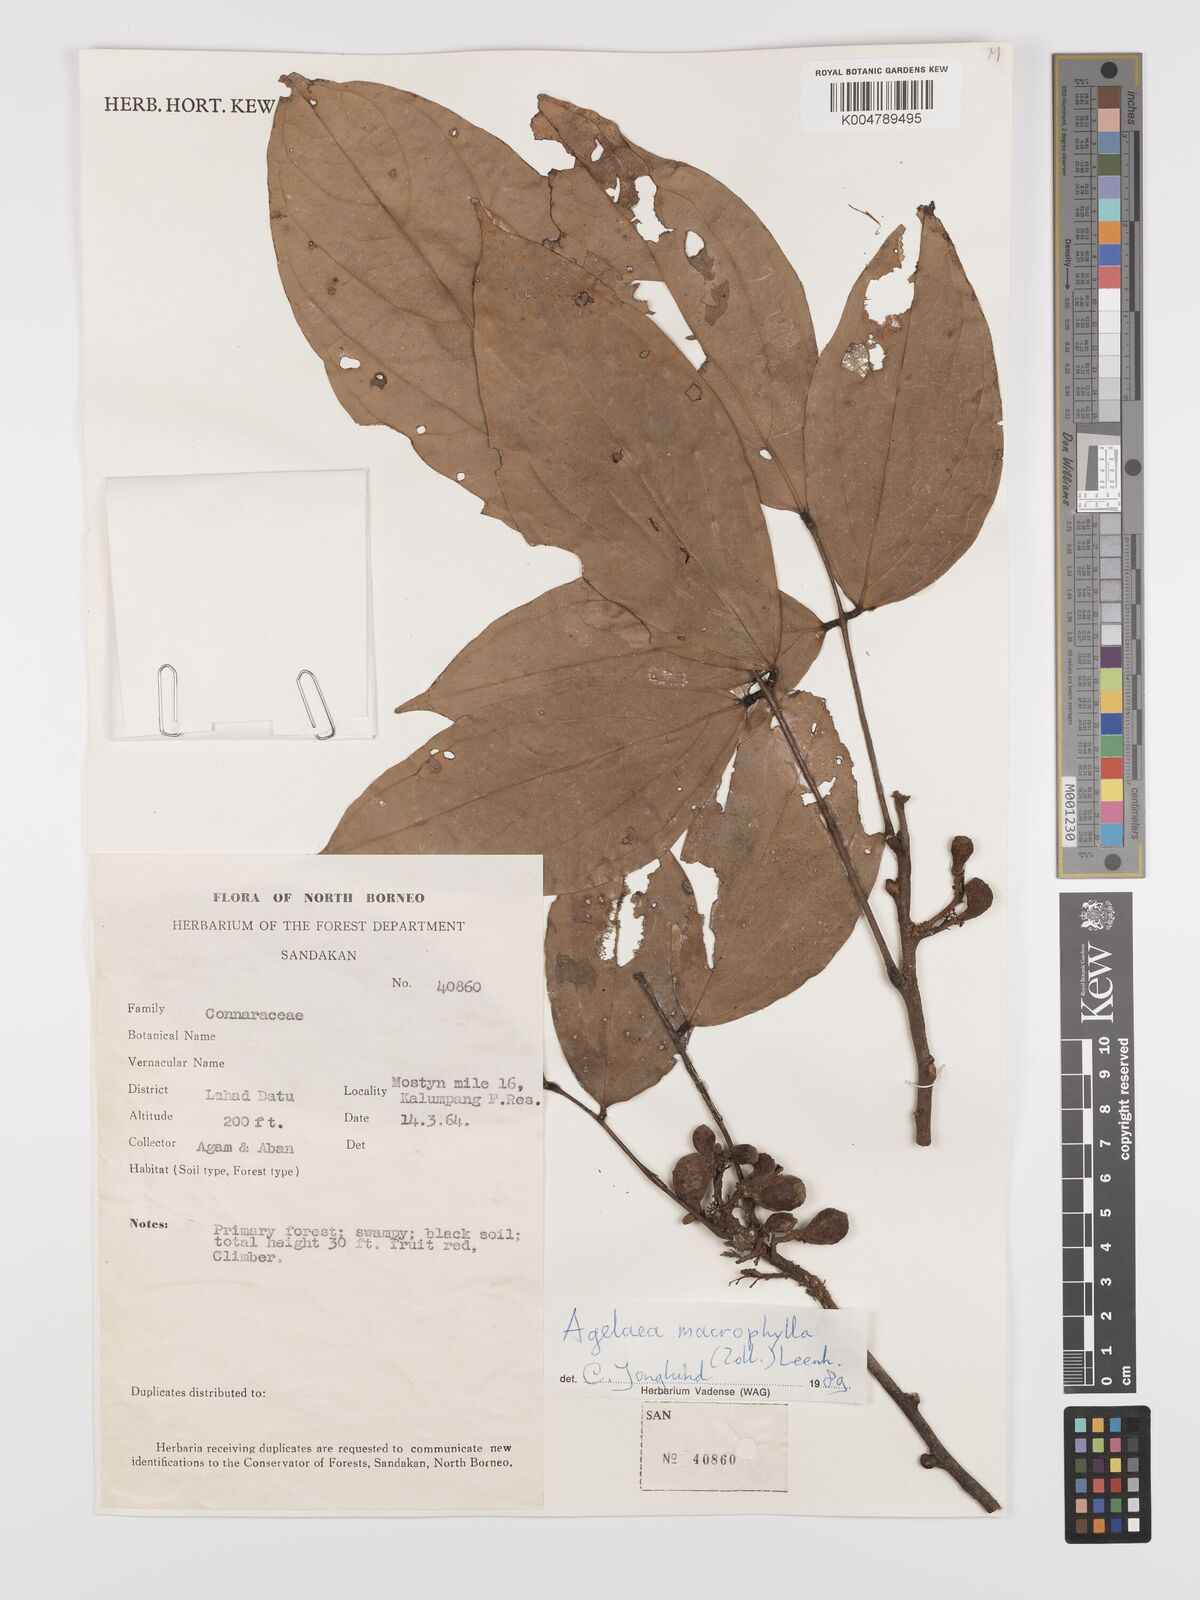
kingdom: Plantae
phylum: Tracheophyta
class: Magnoliopsida
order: Oxalidales
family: Connaraceae
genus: Agelaea
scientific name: Agelaea macrophylla
